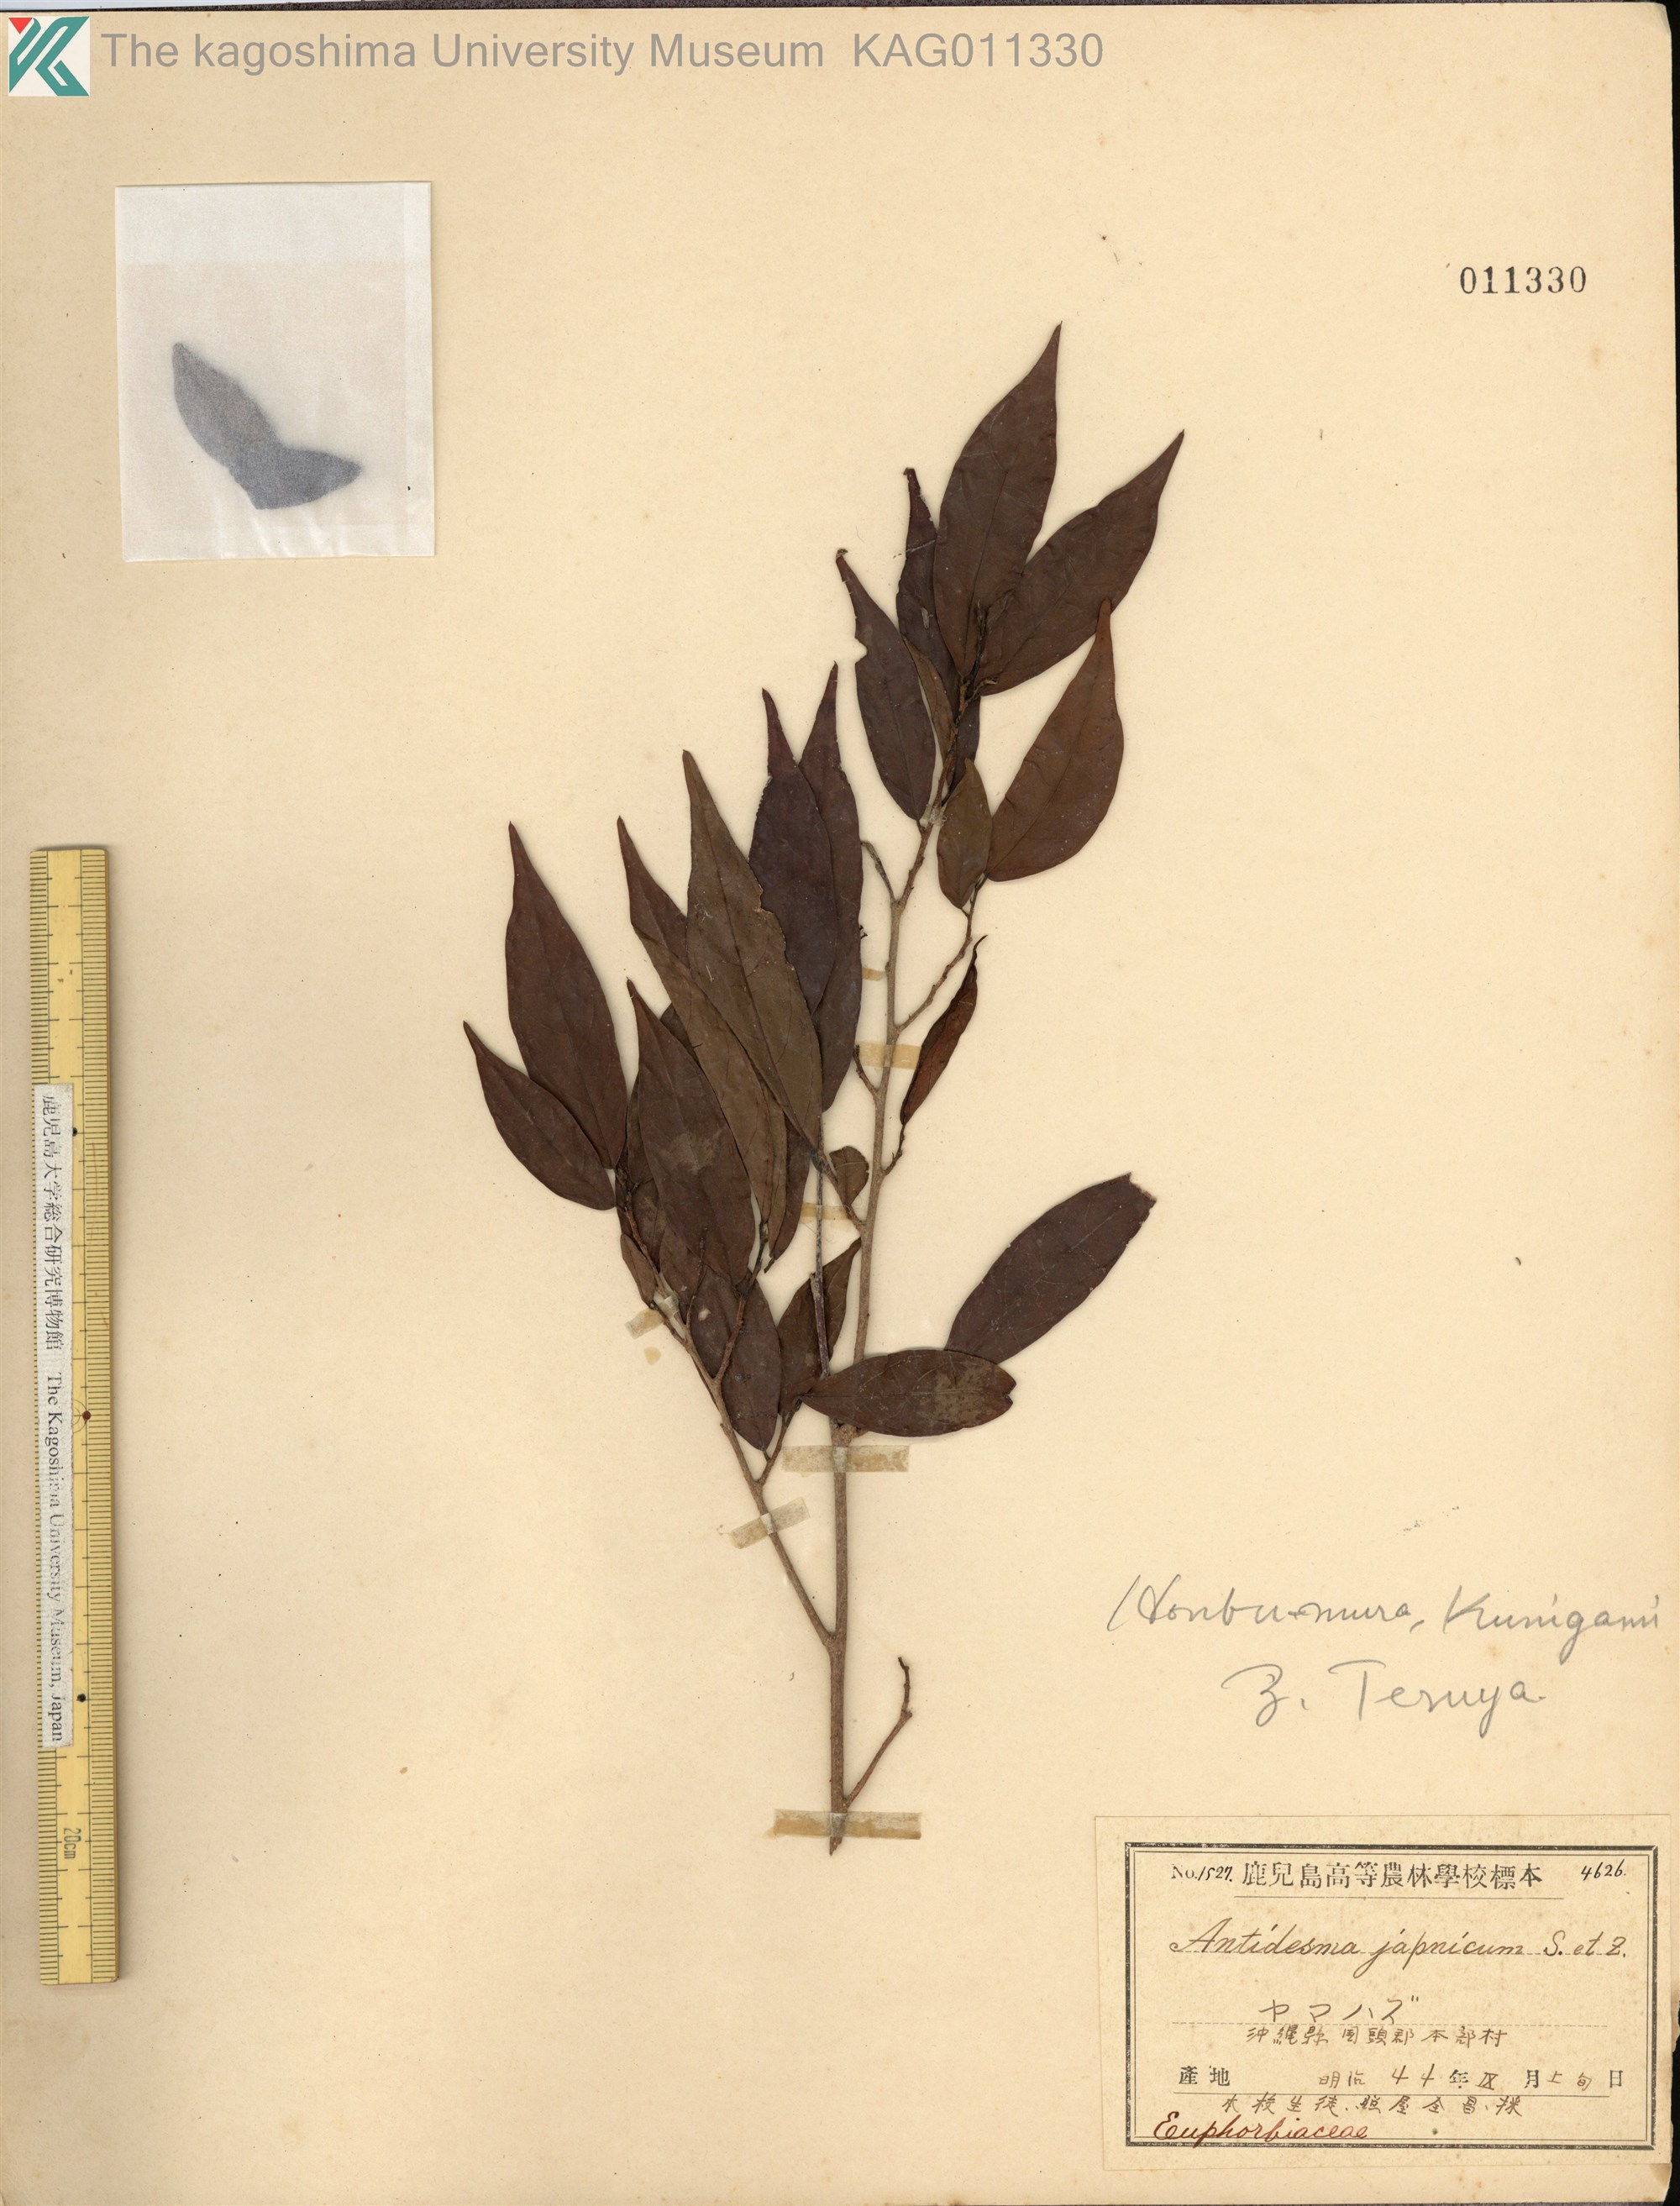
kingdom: Plantae
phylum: Tracheophyta
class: Magnoliopsida
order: Malpighiales
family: Phyllanthaceae
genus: Antidesma
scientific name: Antidesma japonicum
